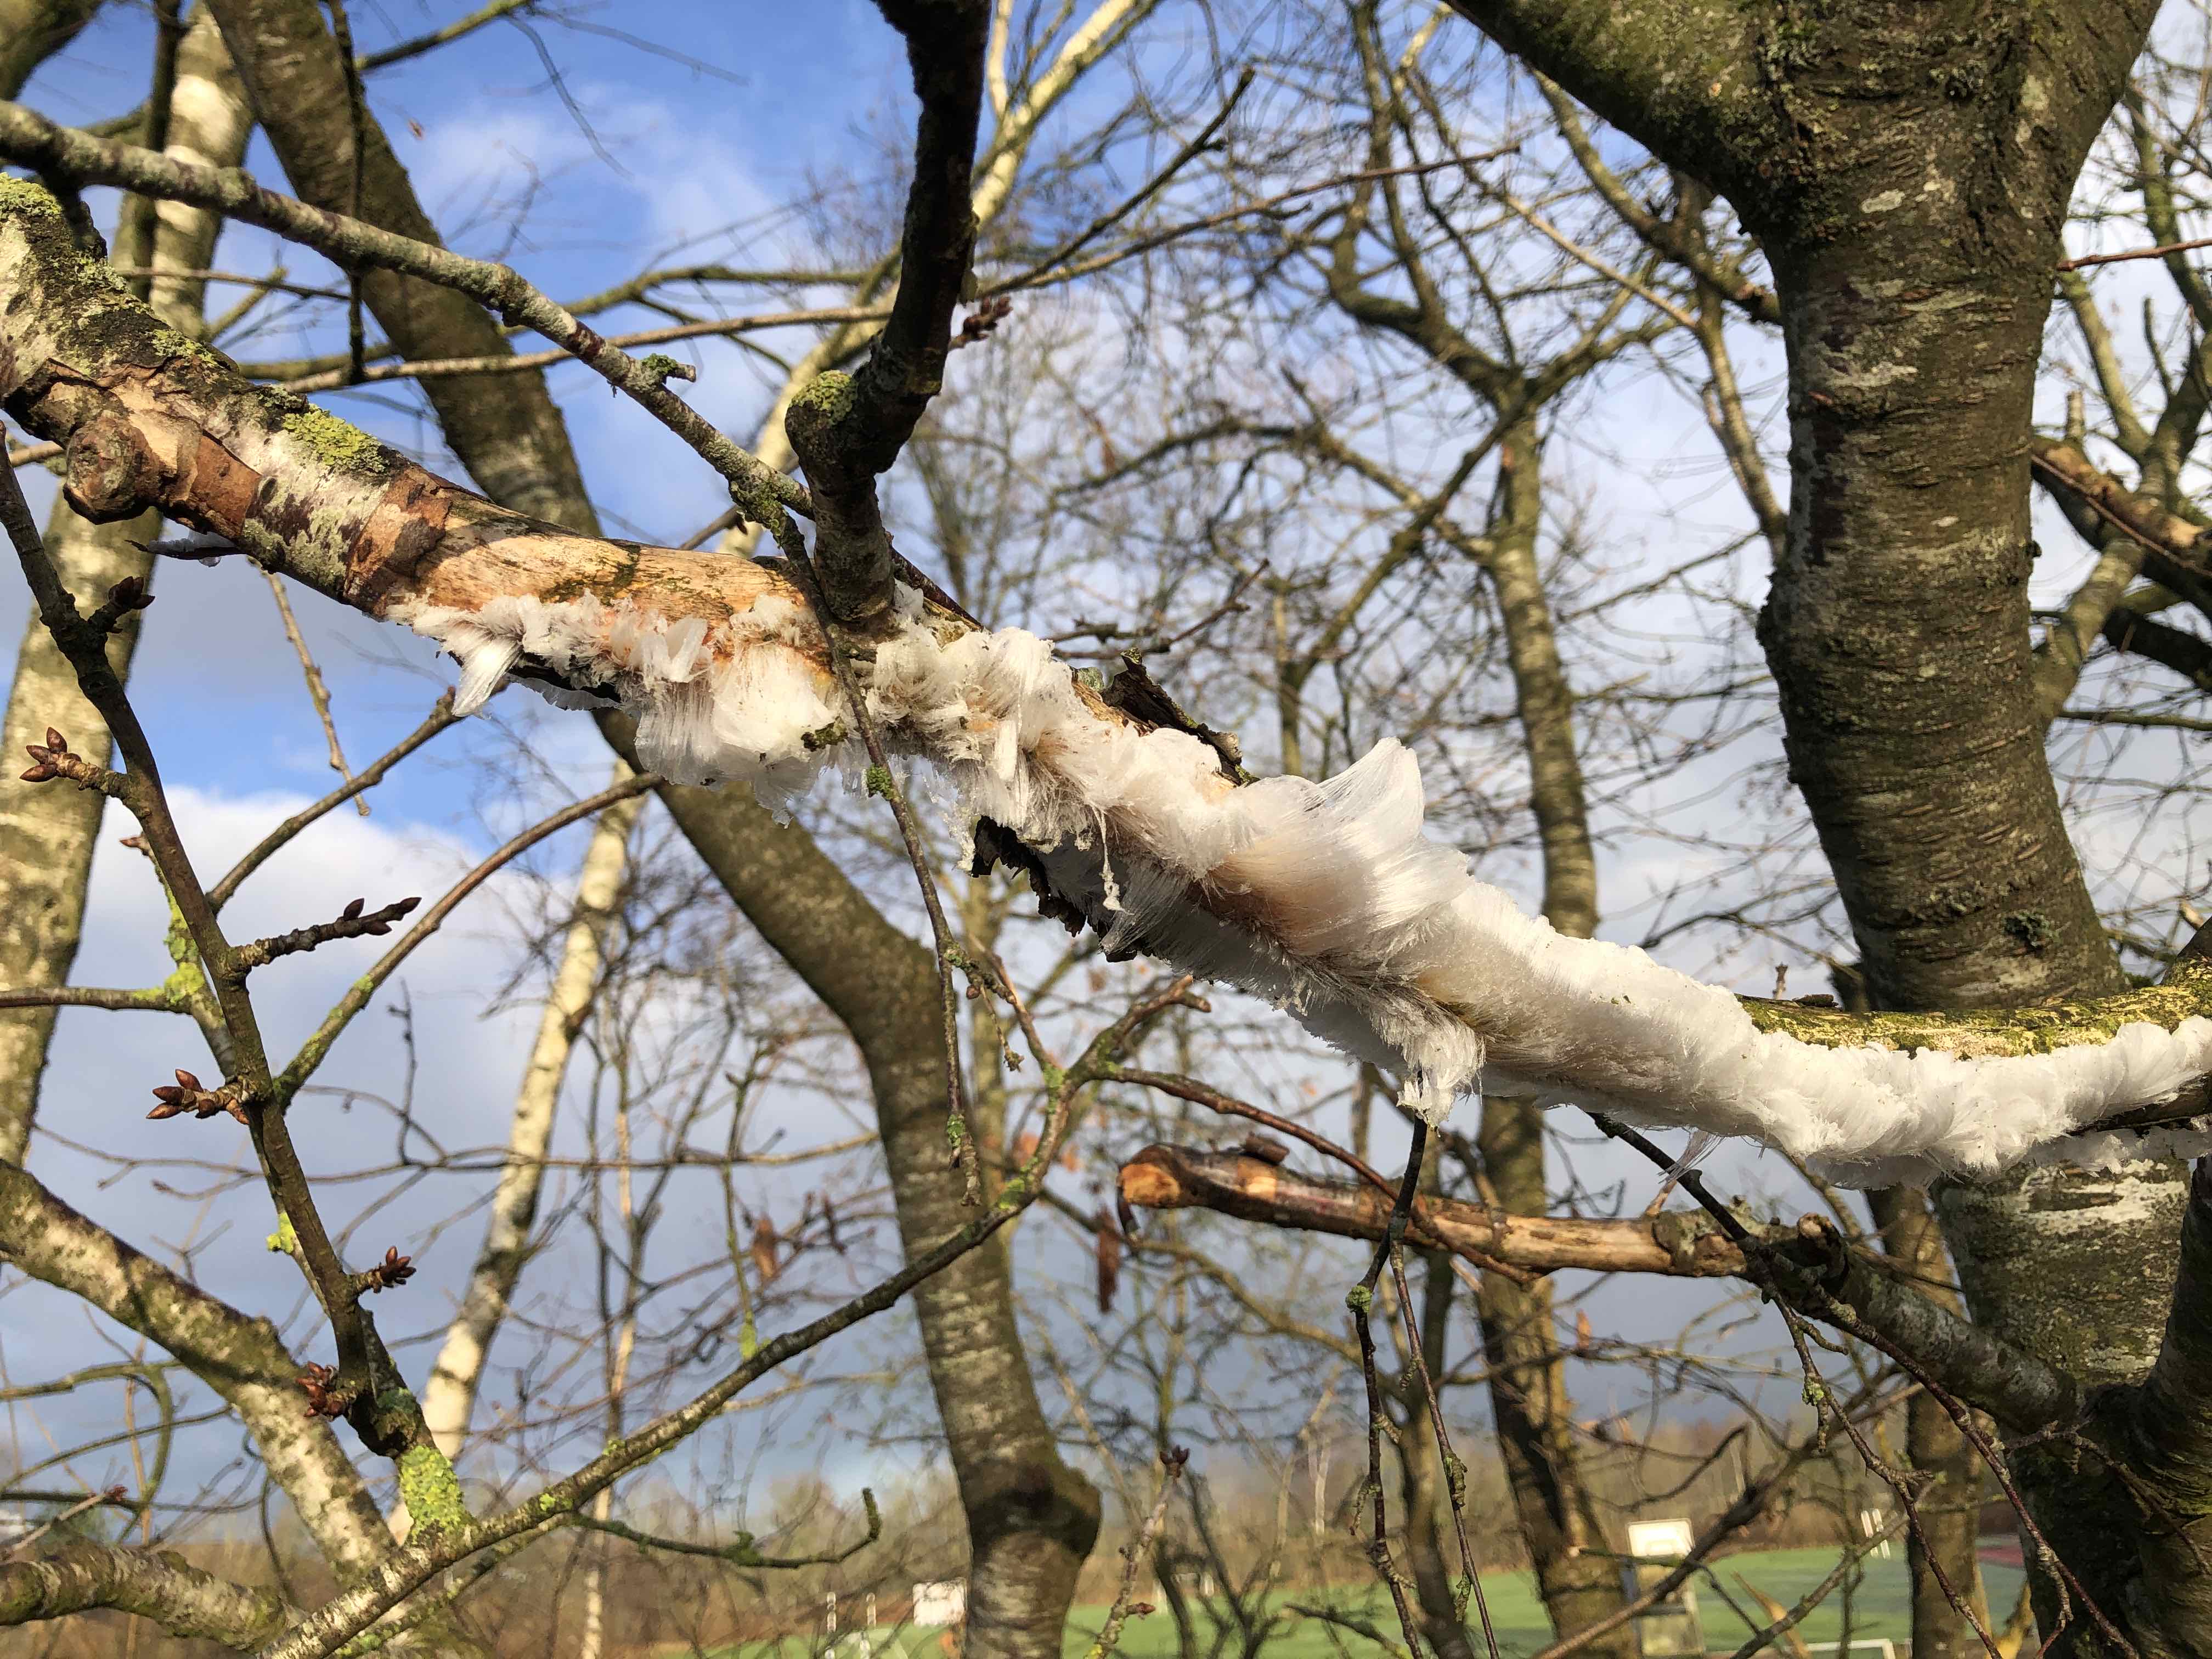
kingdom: Fungi
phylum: Basidiomycota
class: Tremellomycetes
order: Tremellales
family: Exidiaceae
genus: Exidiopsis
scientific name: Exidiopsis effusa
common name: smuk bævrehinde
